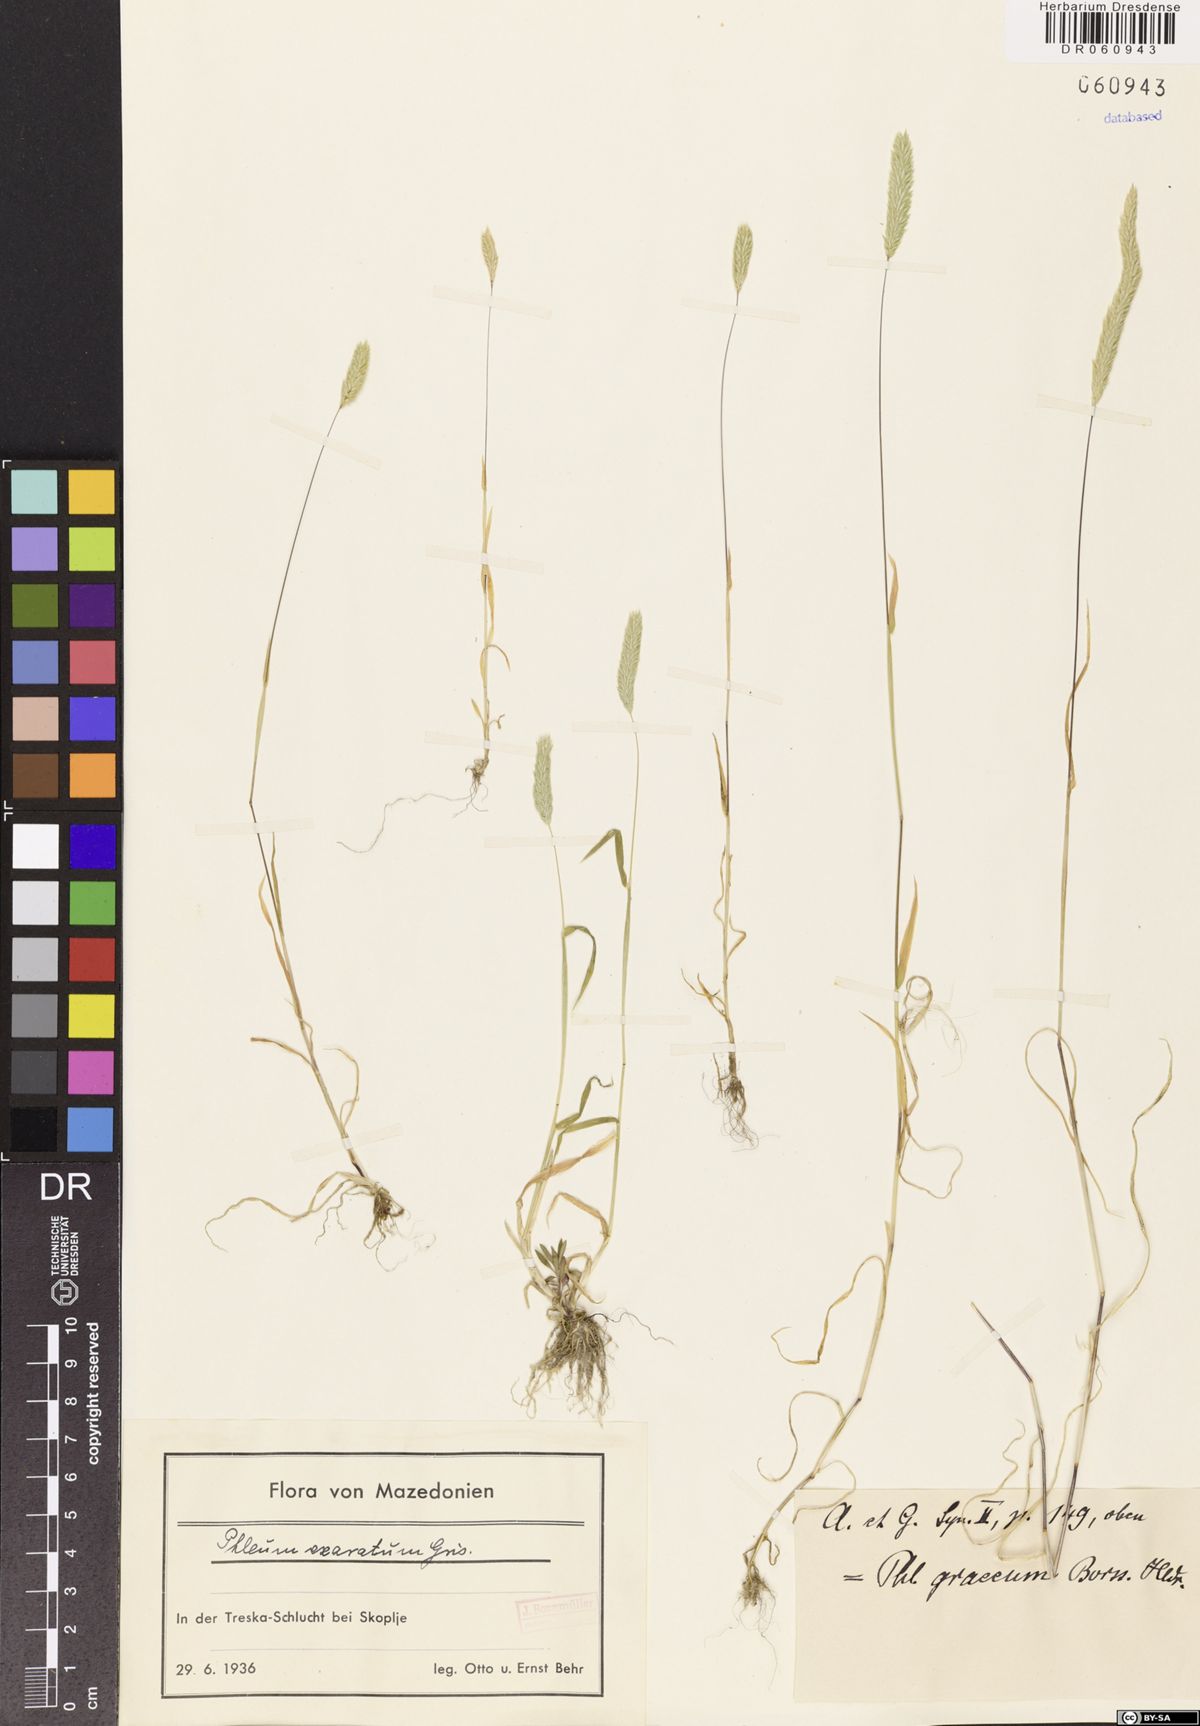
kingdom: Plantae
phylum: Tracheophyta
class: Liliopsida
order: Poales
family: Poaceae
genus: Phleum
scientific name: Phleum exaratum
